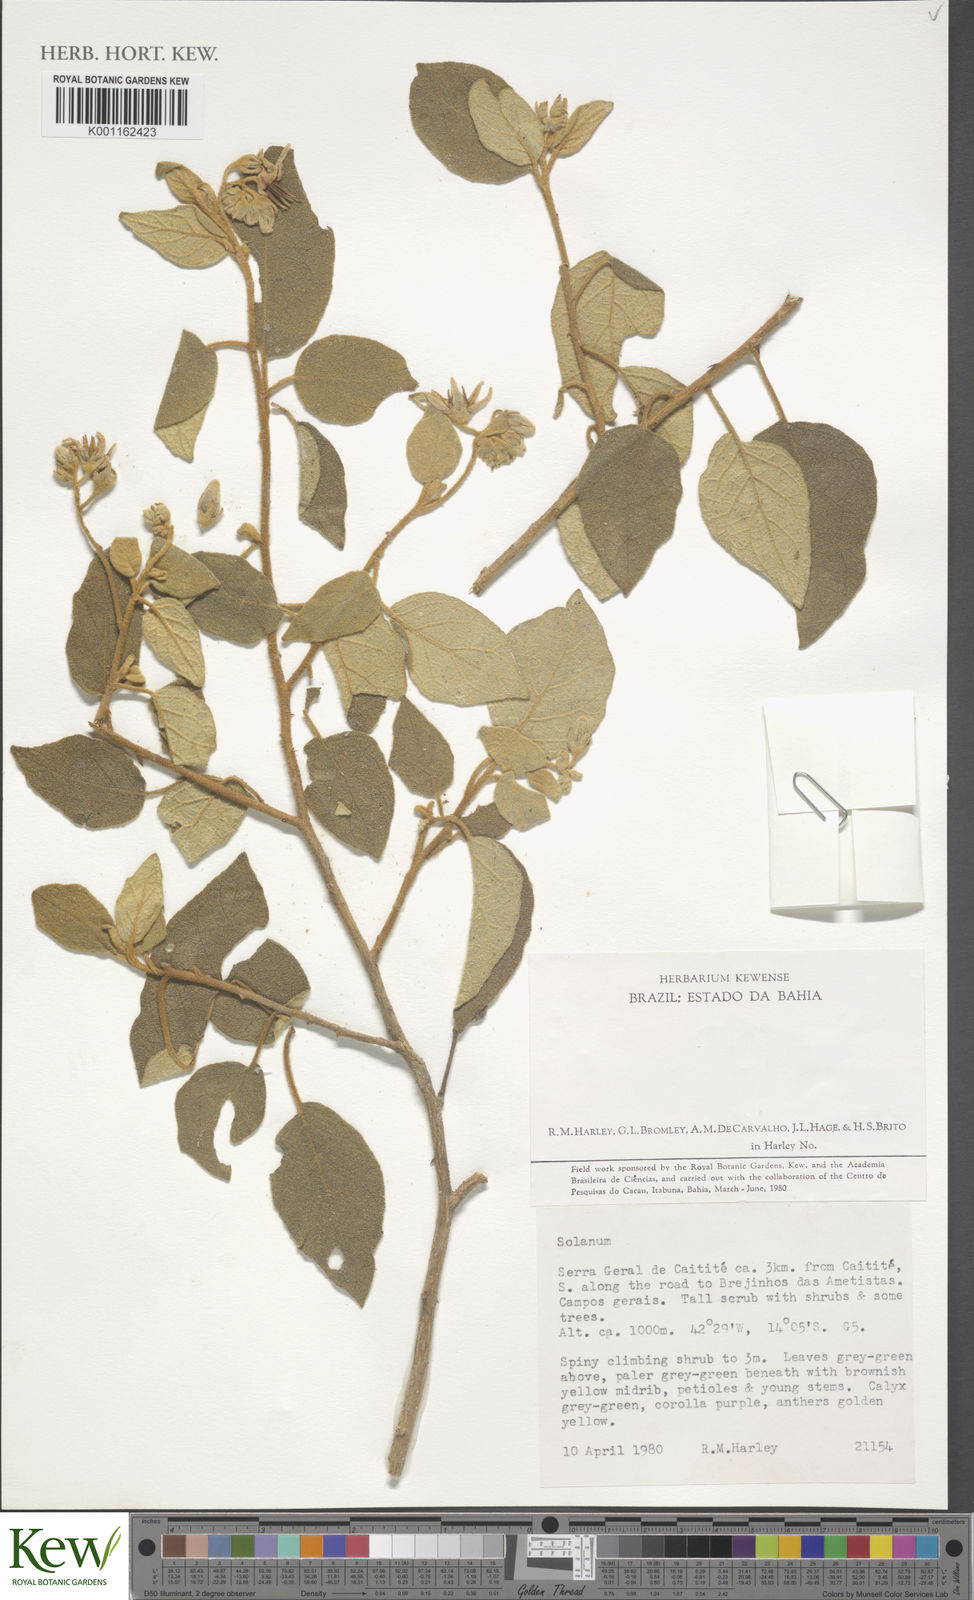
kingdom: Plantae
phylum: Tracheophyta
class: Magnoliopsida
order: Solanales
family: Solanaceae
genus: Solanum
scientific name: Solanum rhytidoandrum
